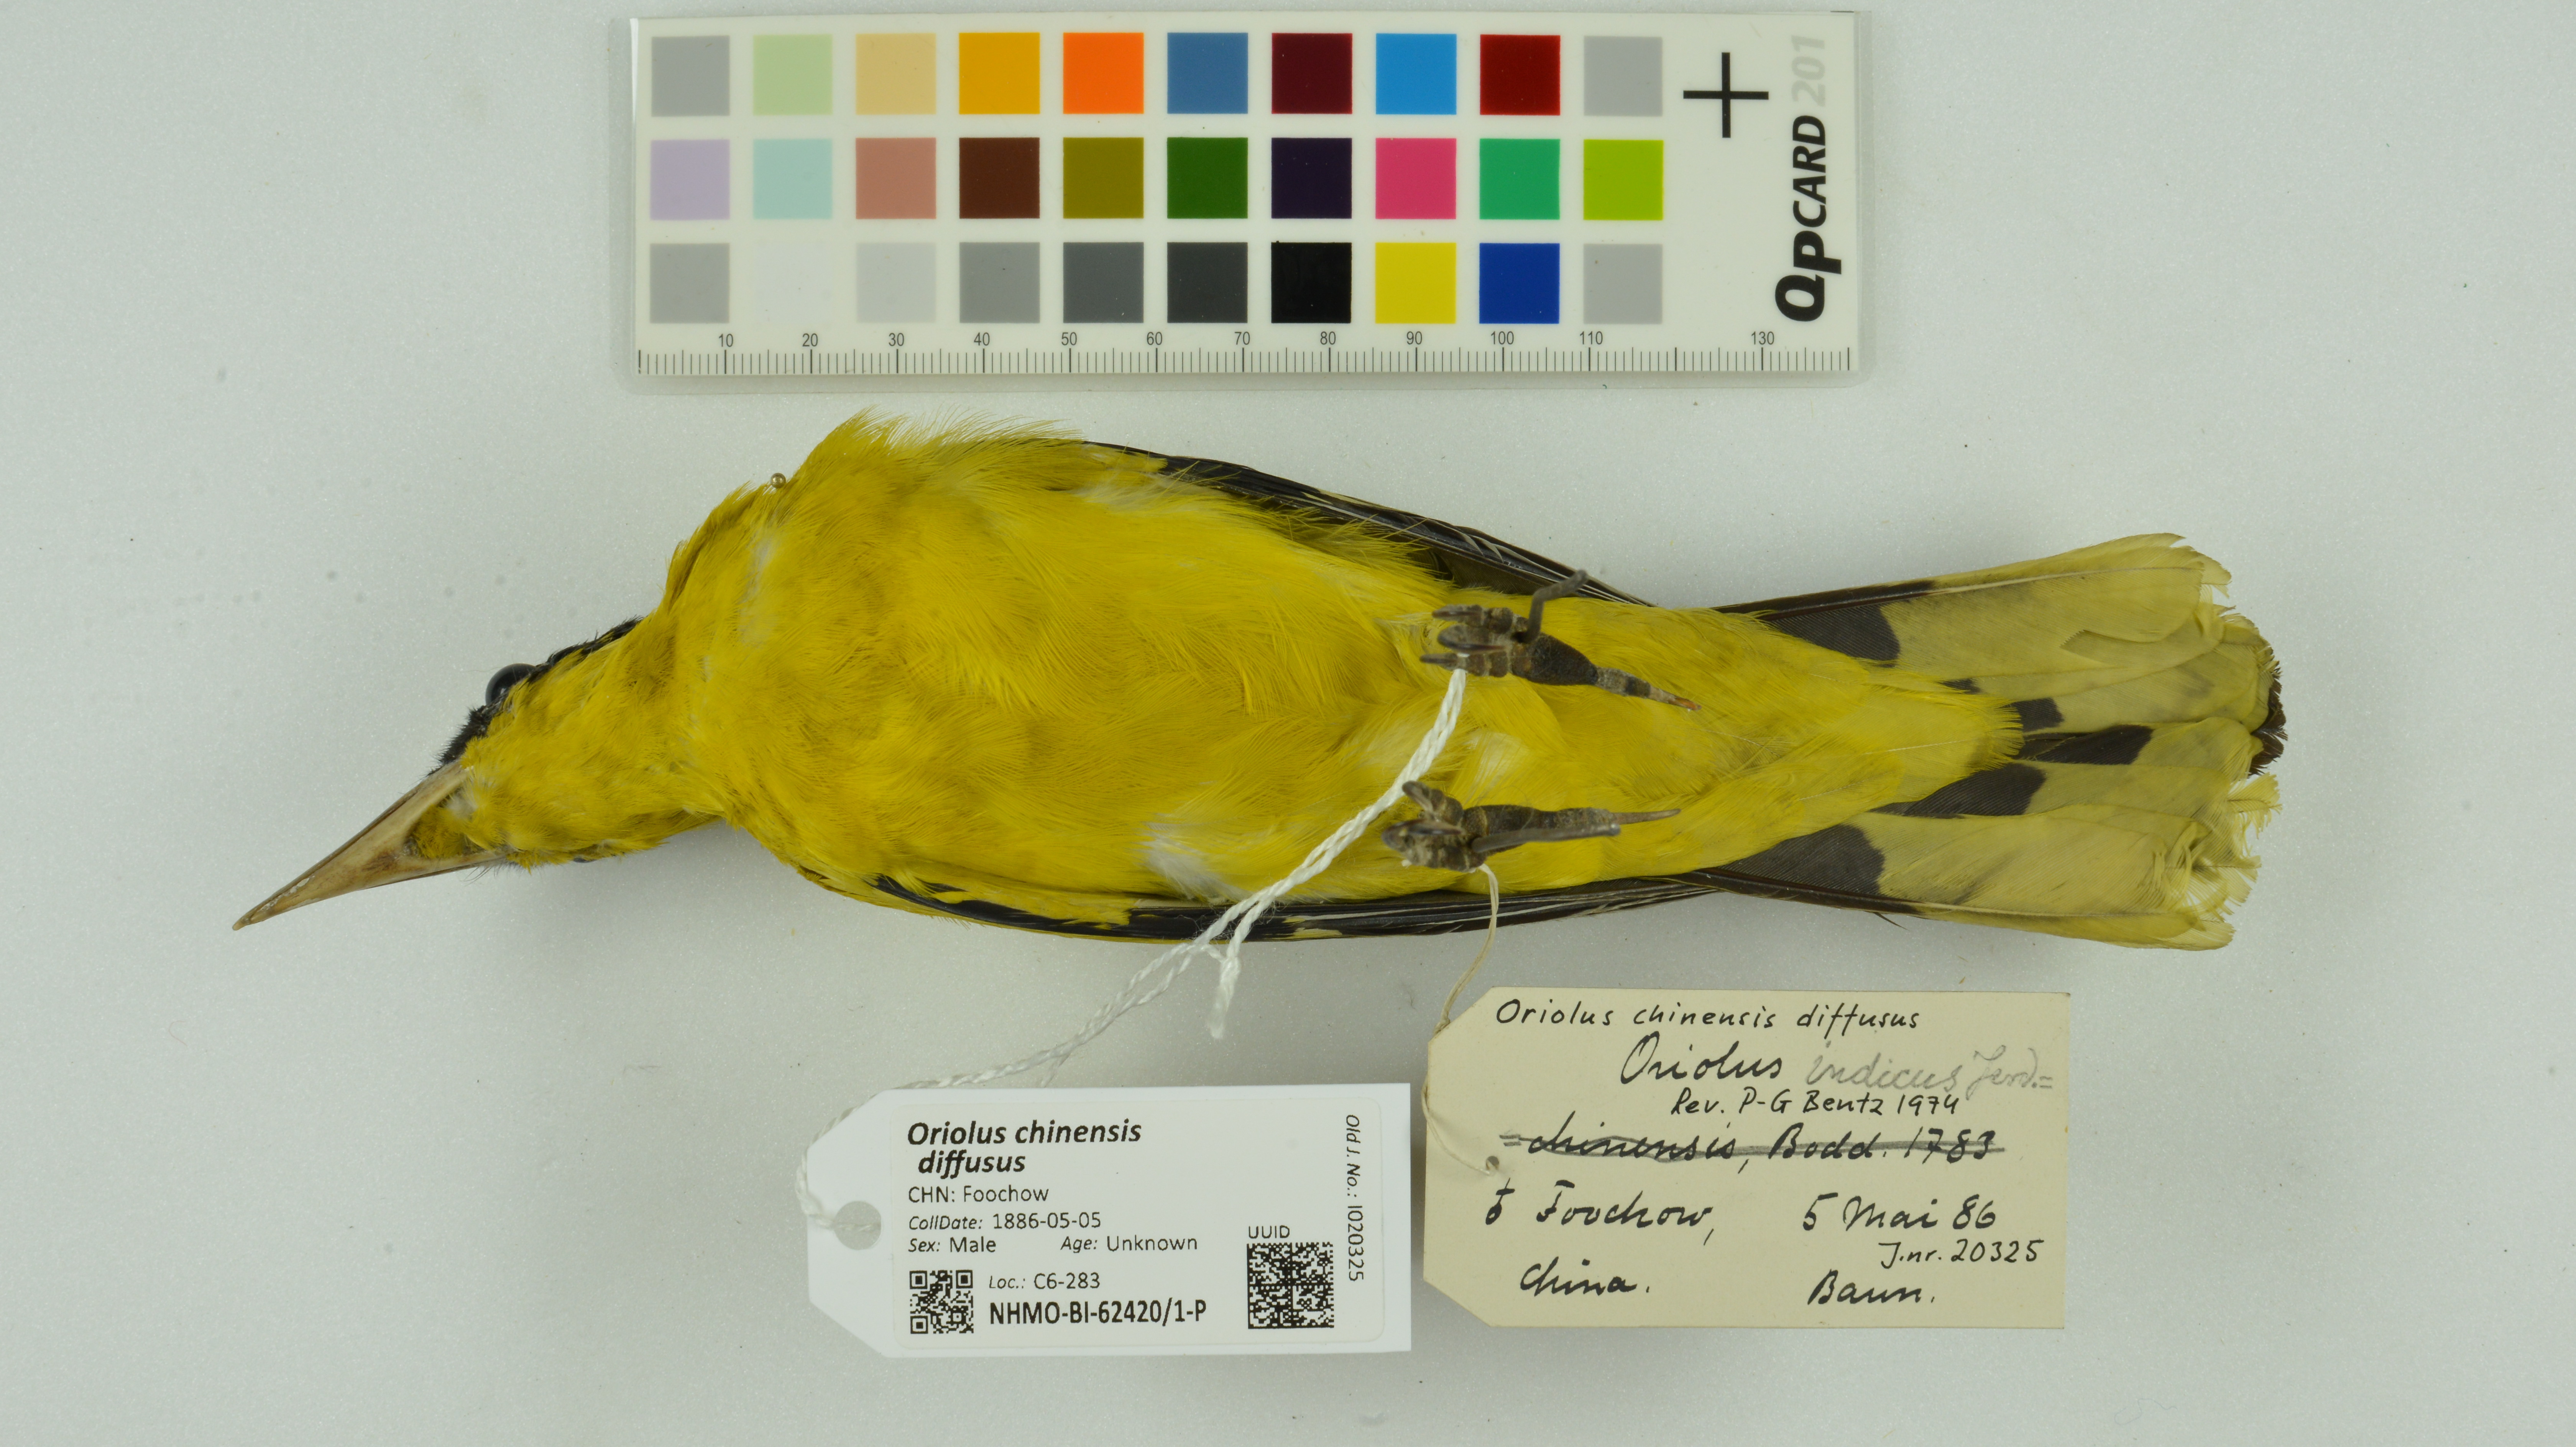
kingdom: Animalia
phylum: Chordata
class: Aves
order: Passeriformes
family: Oriolidae
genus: Oriolus
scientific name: Oriolus chinensis
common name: Black-naped oriole
